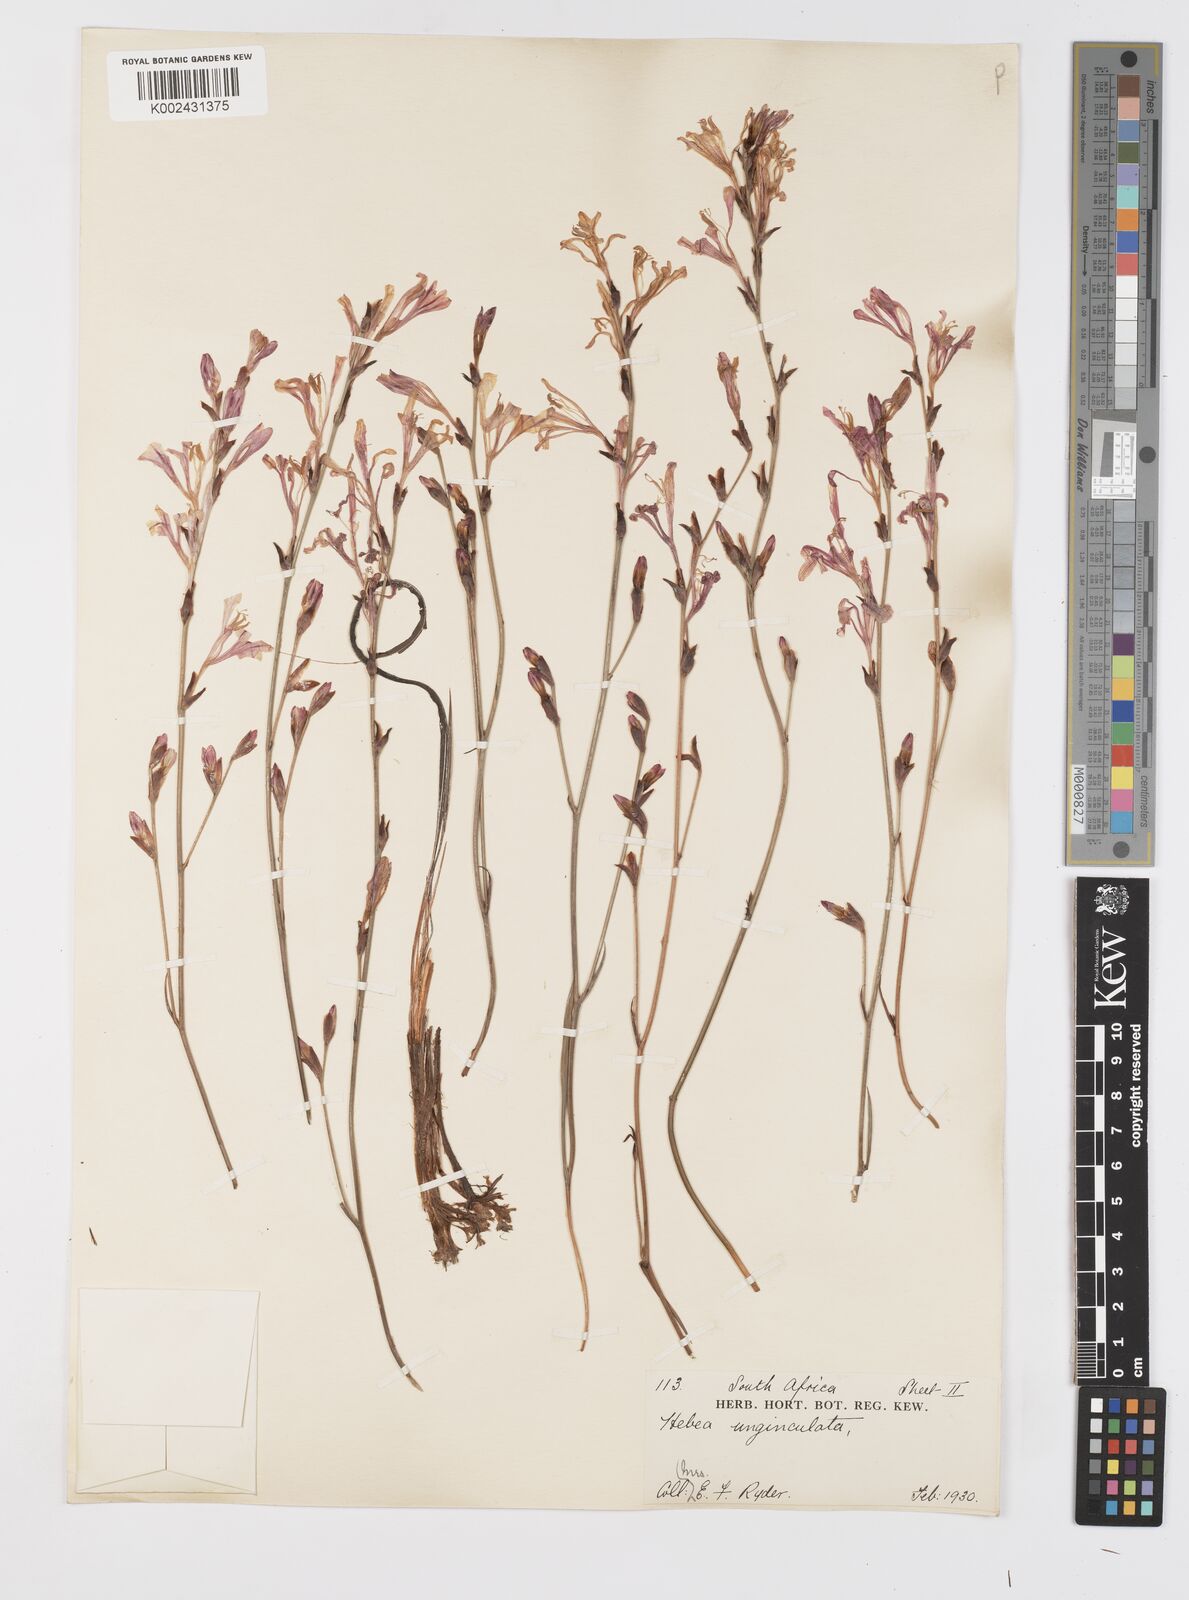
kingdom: Plantae
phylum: Tracheophyta
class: Liliopsida
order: Asparagales
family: Iridaceae
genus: Tritoniopsis
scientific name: Tritoniopsis unguicularis
